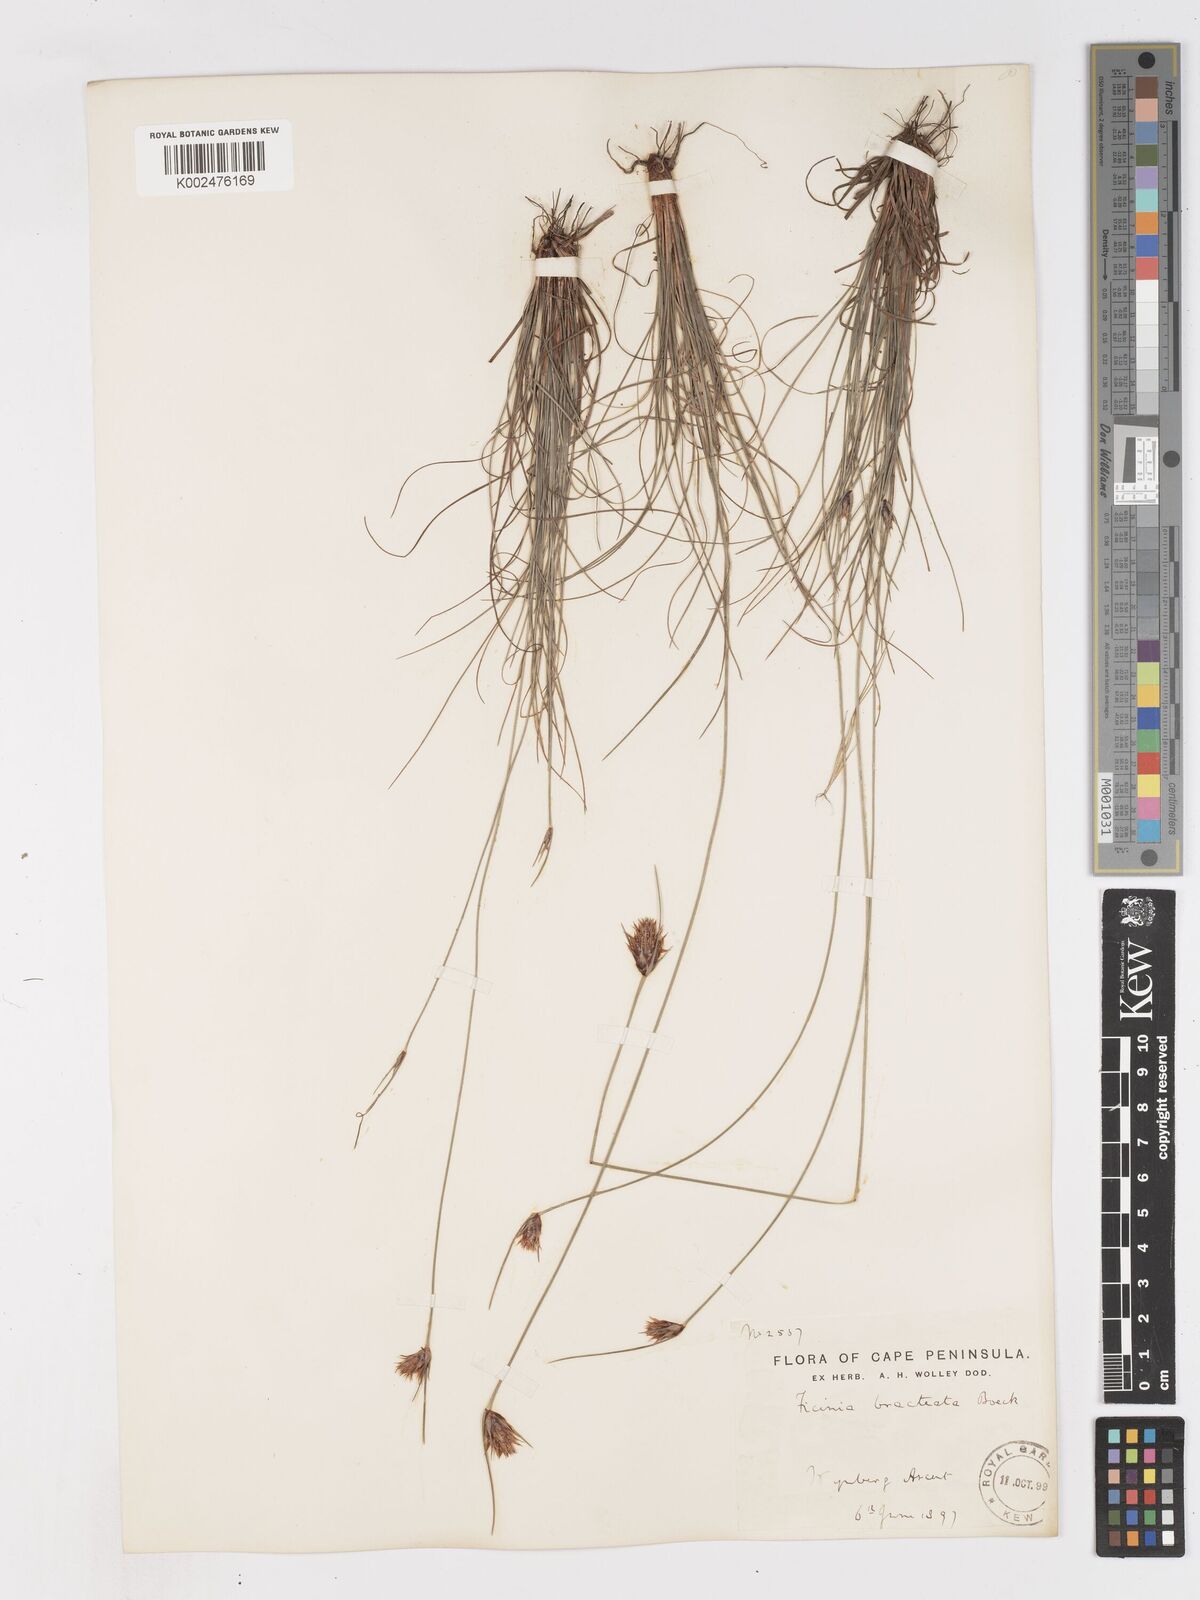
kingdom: Plantae
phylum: Tracheophyta
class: Liliopsida
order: Poales
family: Cyperaceae
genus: Ficinia
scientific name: Ficinia nigrescens
